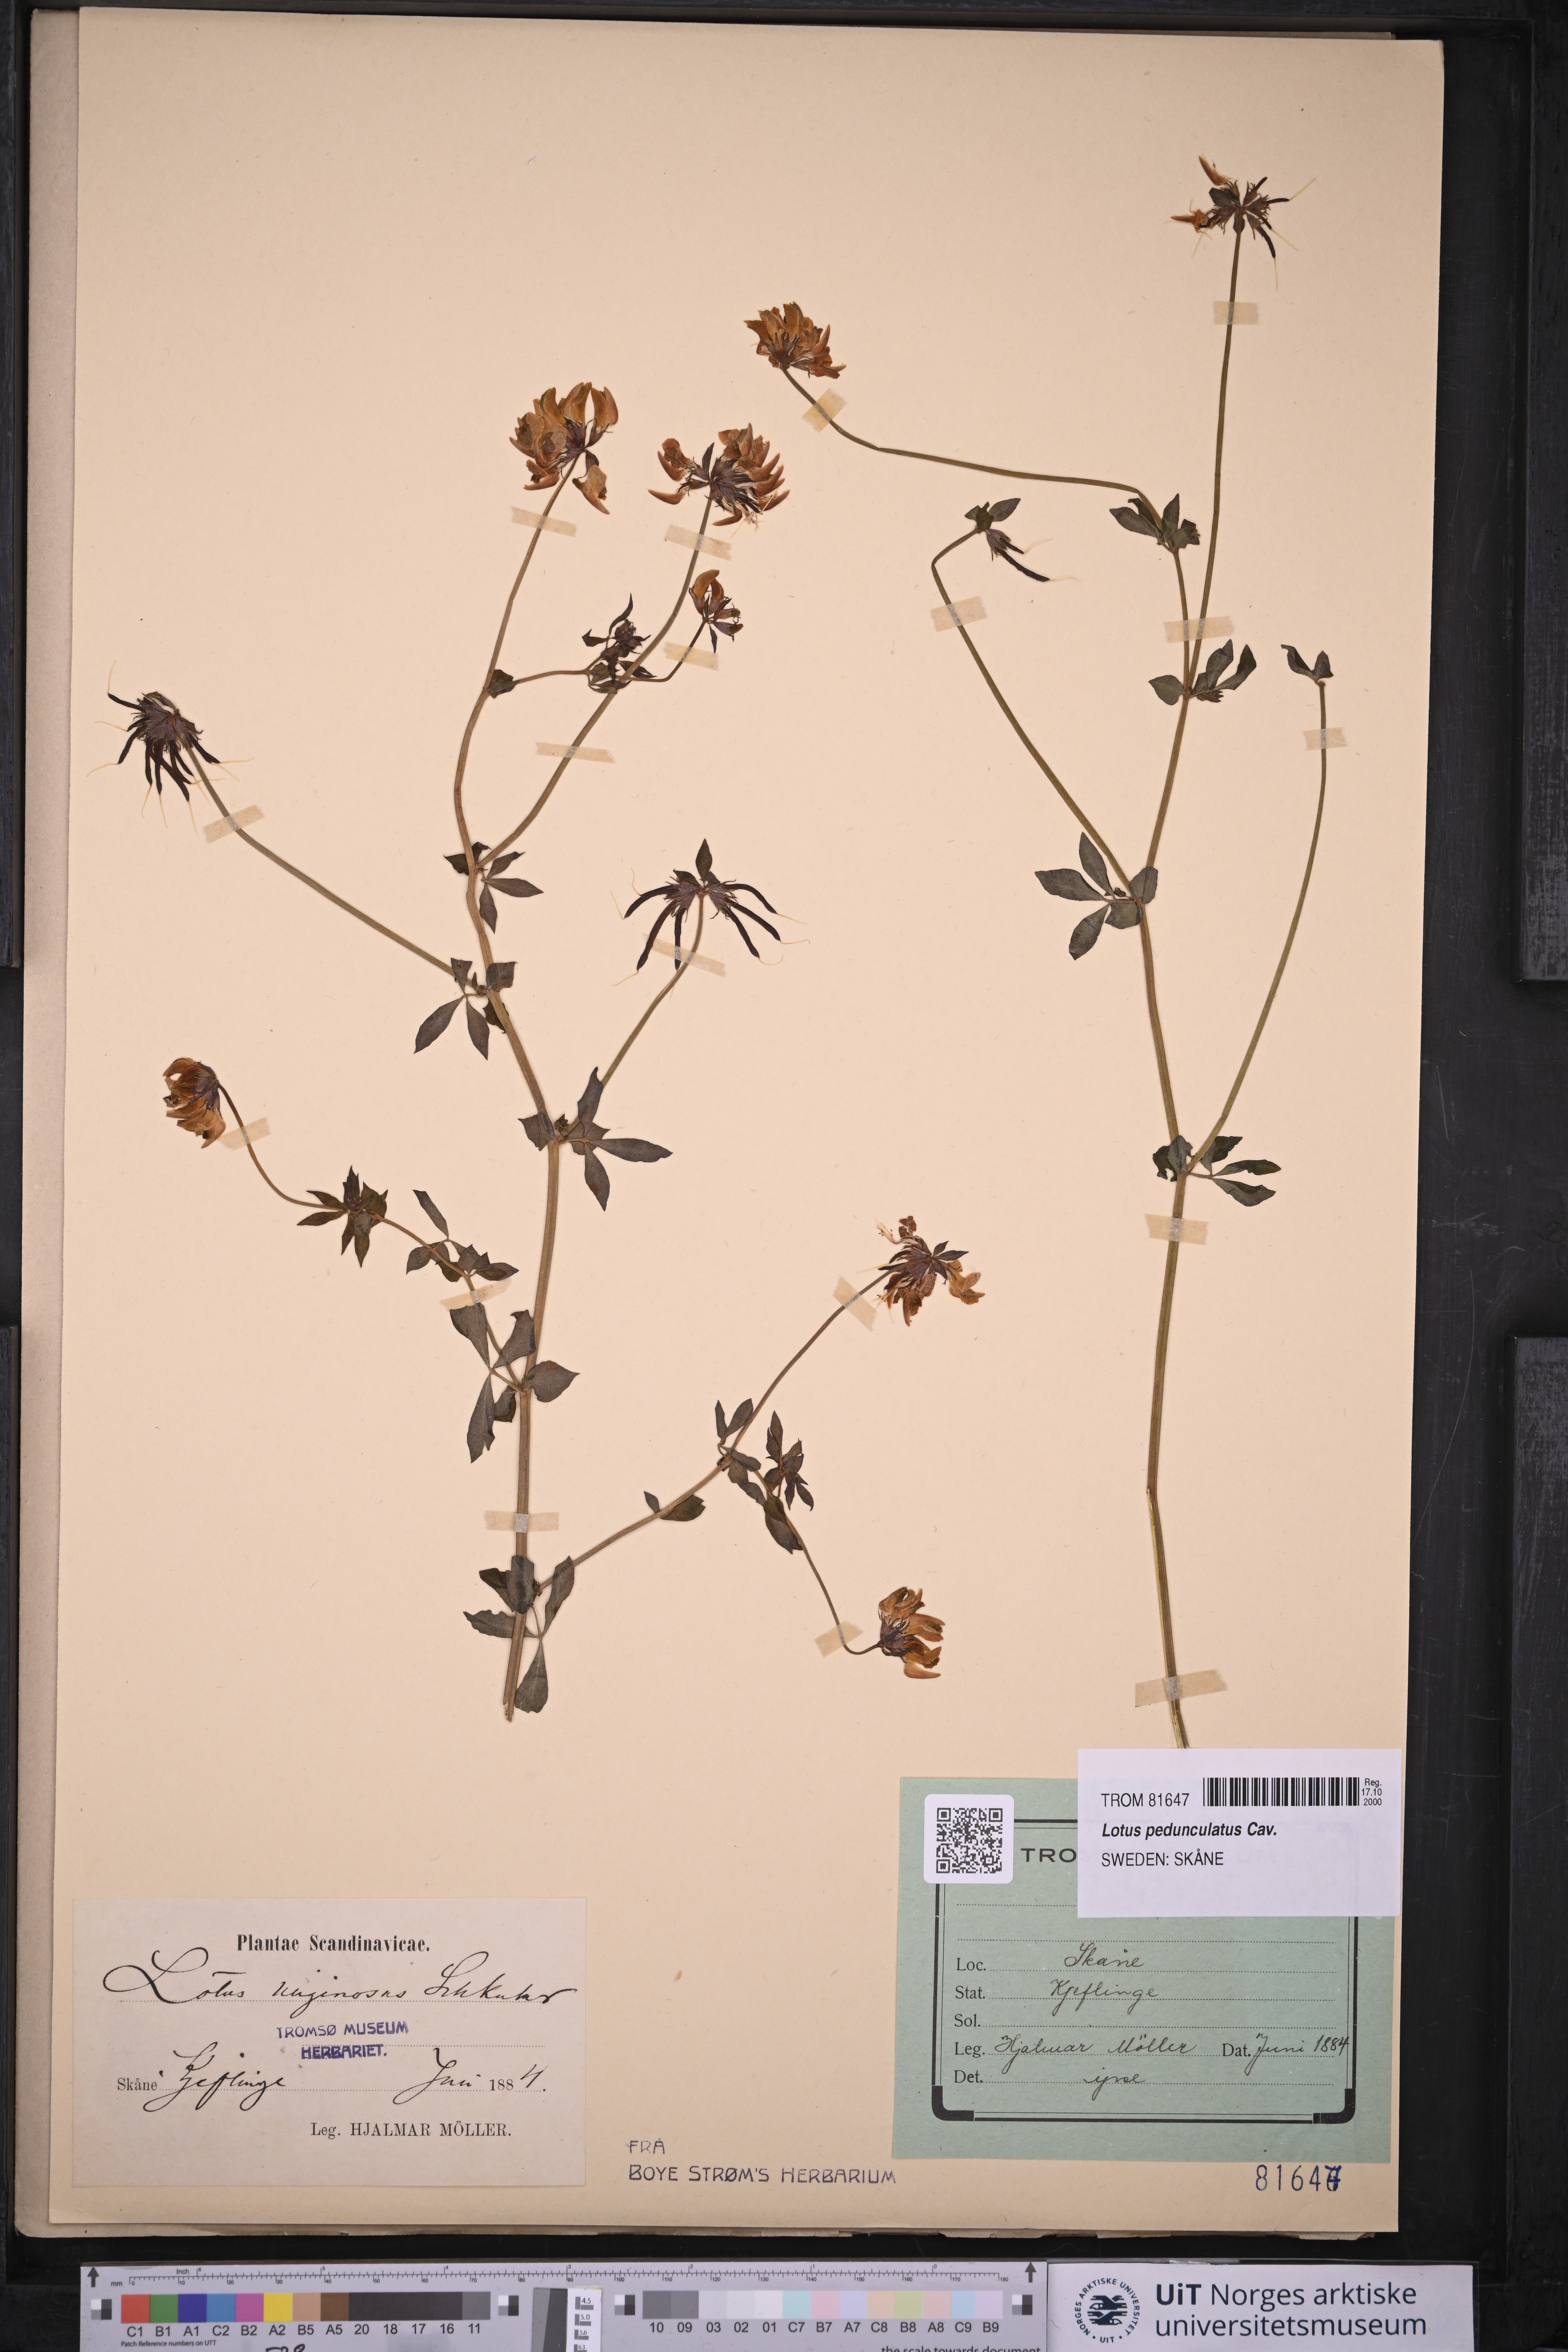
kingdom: Plantae
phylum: Tracheophyta
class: Magnoliopsida
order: Fabales
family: Fabaceae
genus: Lotus
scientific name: Lotus pedunculatus
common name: Greater birdsfoot-trefoil
